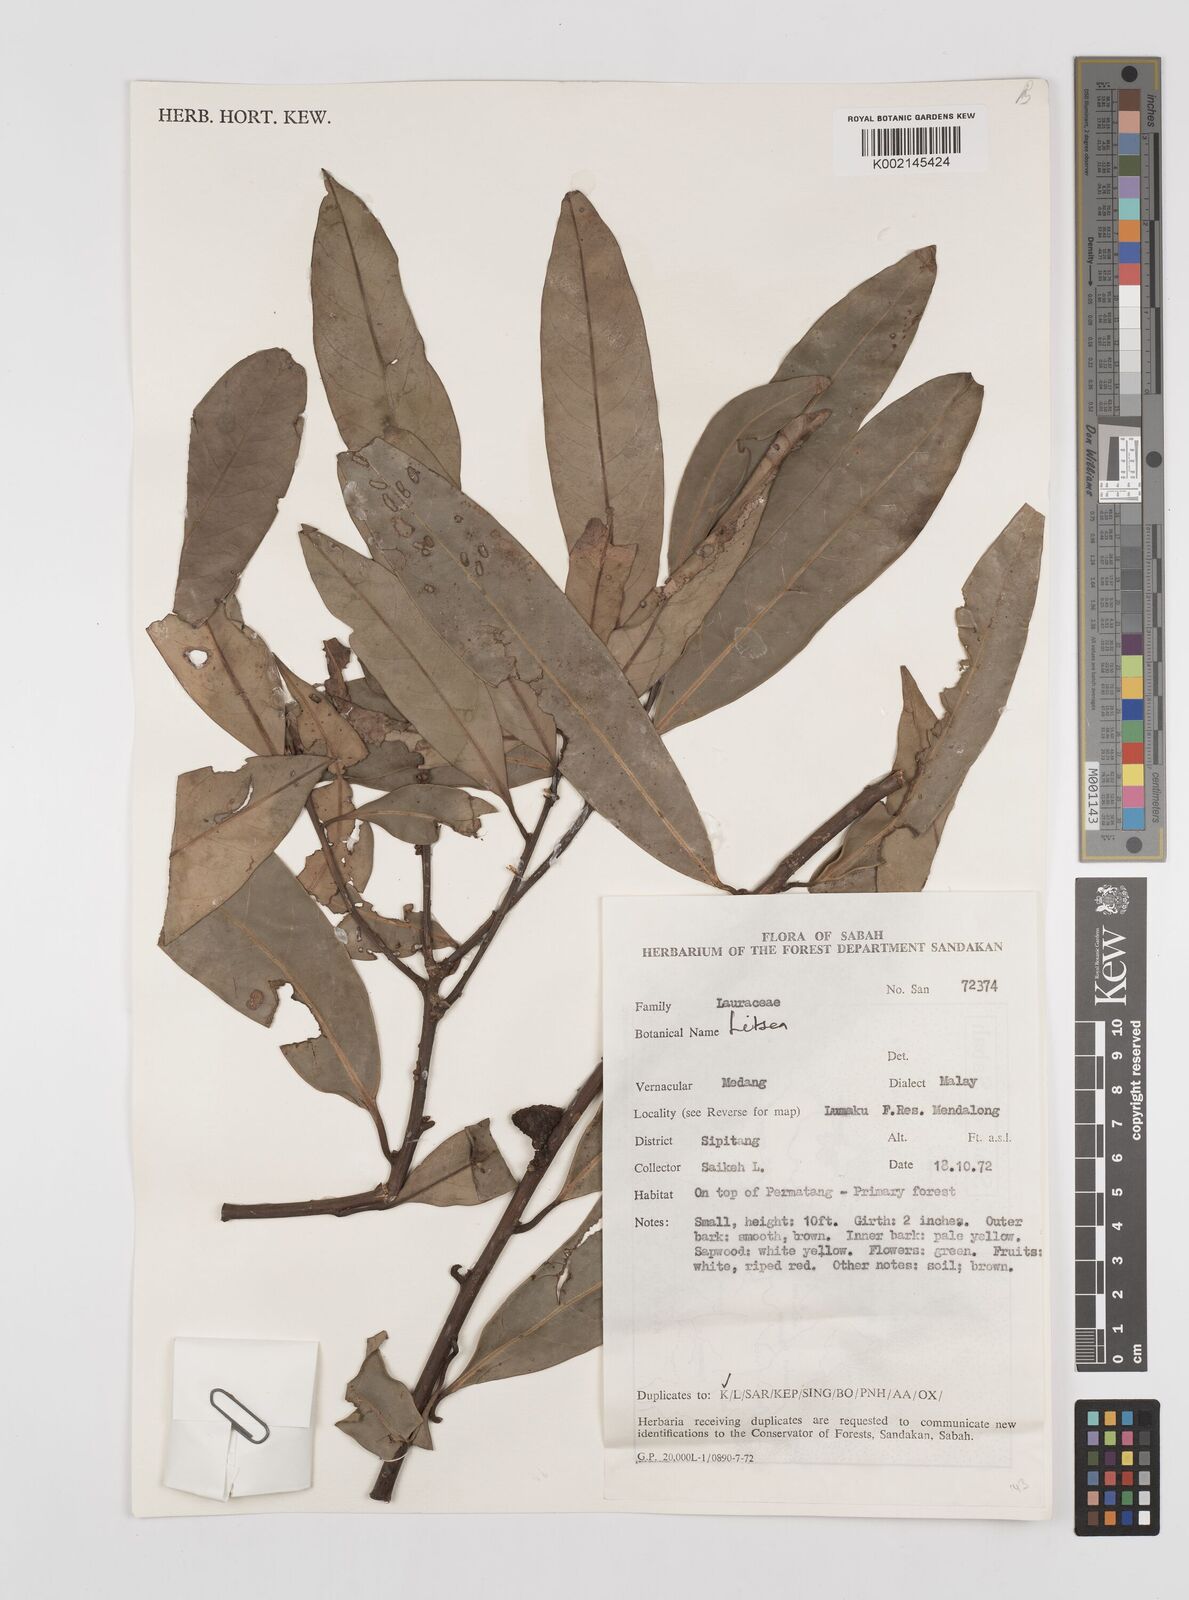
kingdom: Plantae
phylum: Tracheophyta
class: Magnoliopsida
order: Laurales
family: Lauraceae
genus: Litsea
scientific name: Litsea
